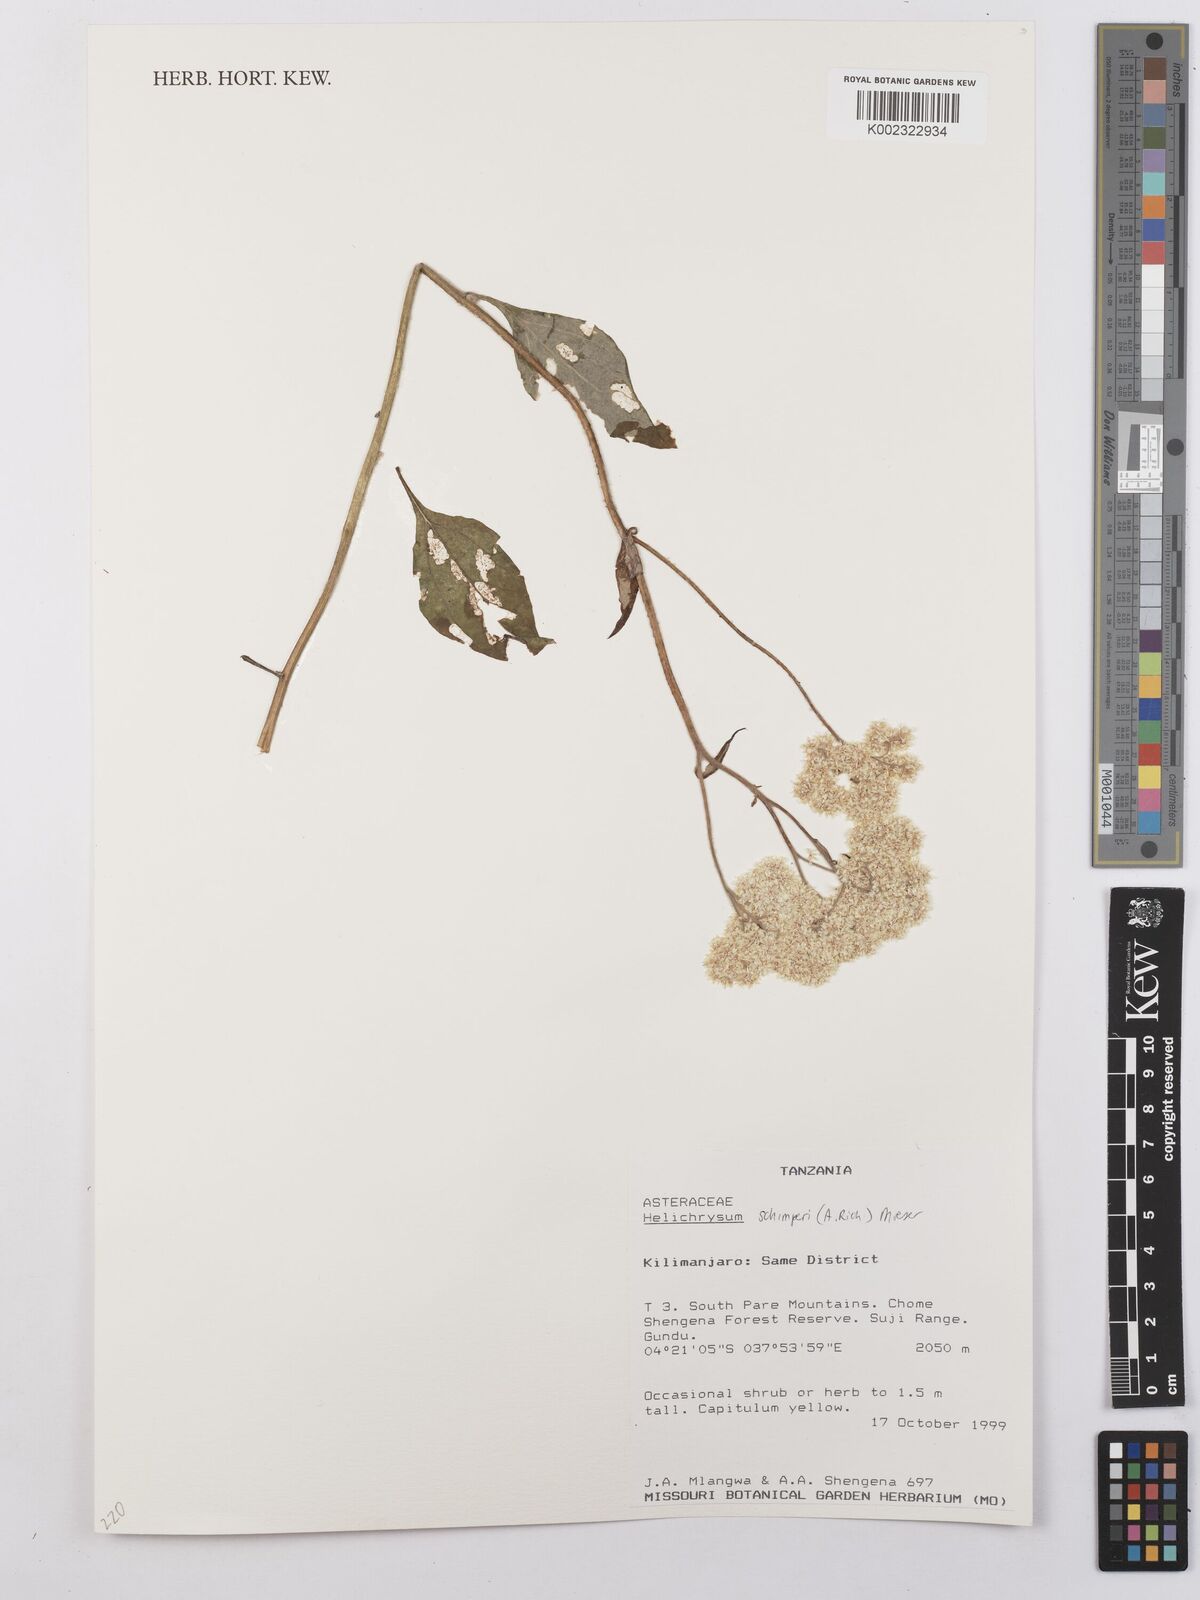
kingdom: Plantae
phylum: Tracheophyta
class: Magnoliopsida
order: Asterales
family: Asteraceae
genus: Helichrysum
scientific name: Helichrysum schimperi
